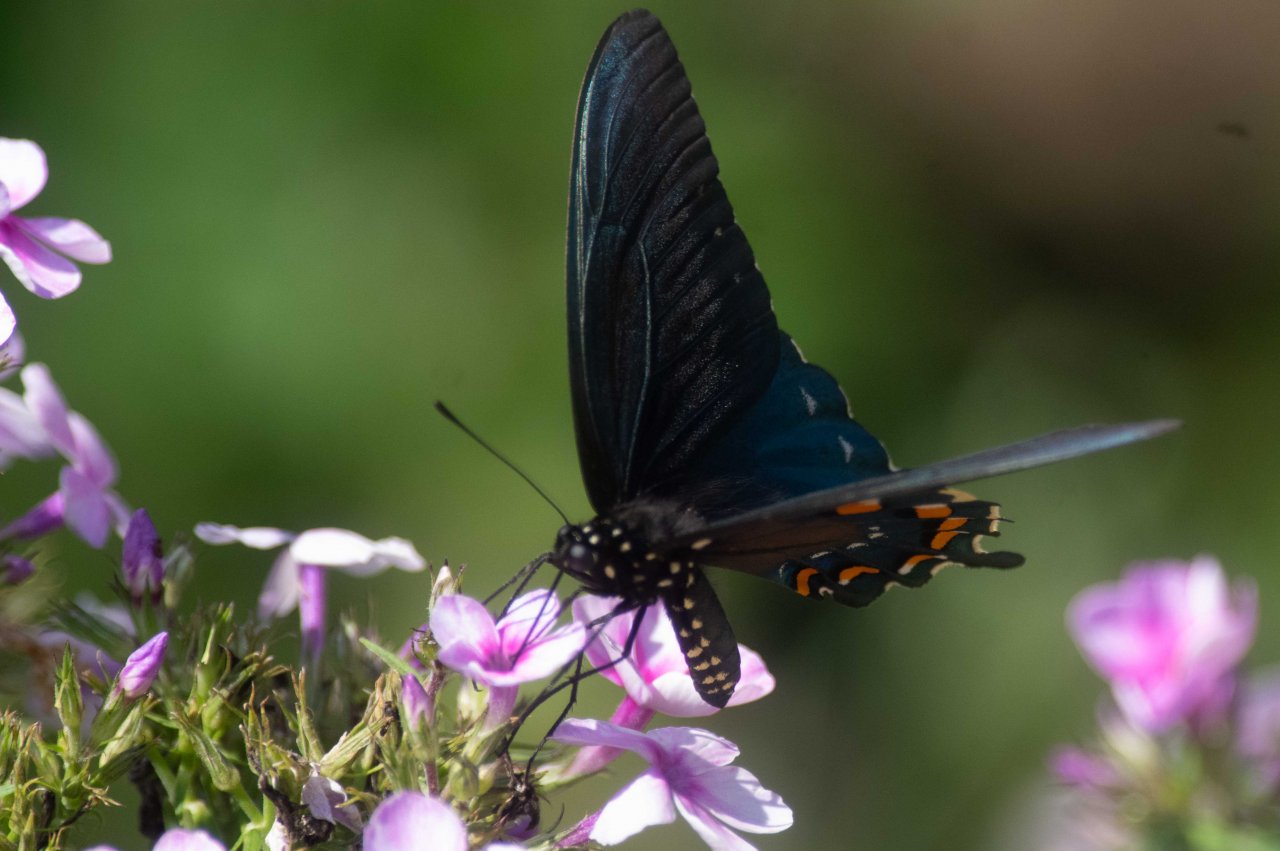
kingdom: Animalia
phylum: Arthropoda
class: Insecta
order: Lepidoptera
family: Papilionidae
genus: Battus
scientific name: Battus philenor
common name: Pipevine Swallowtail
